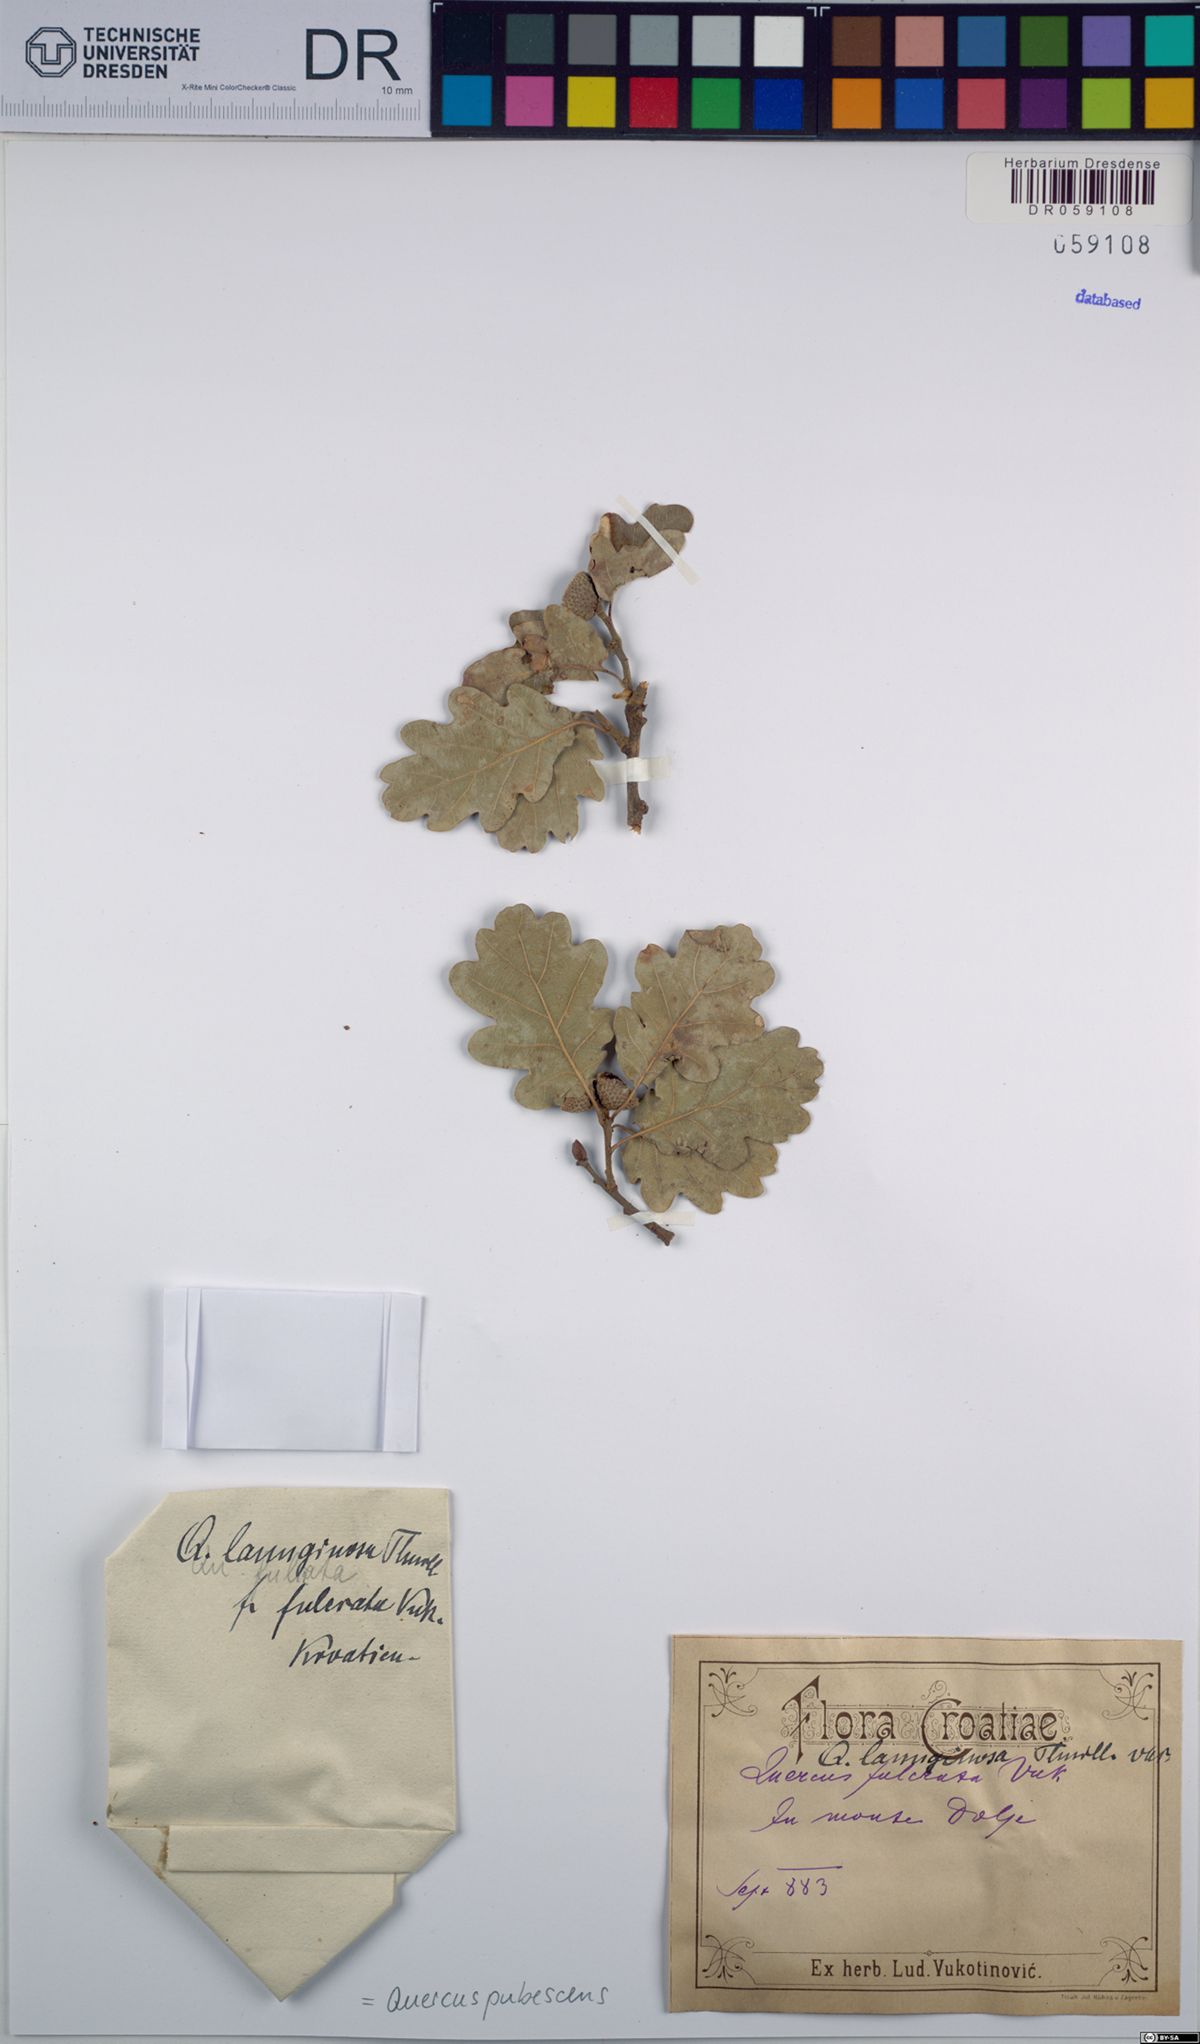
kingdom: Plantae
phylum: Tracheophyta
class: Magnoliopsida
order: Fagales
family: Fagaceae
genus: Quercus
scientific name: Quercus pubescens
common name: Downy oak
